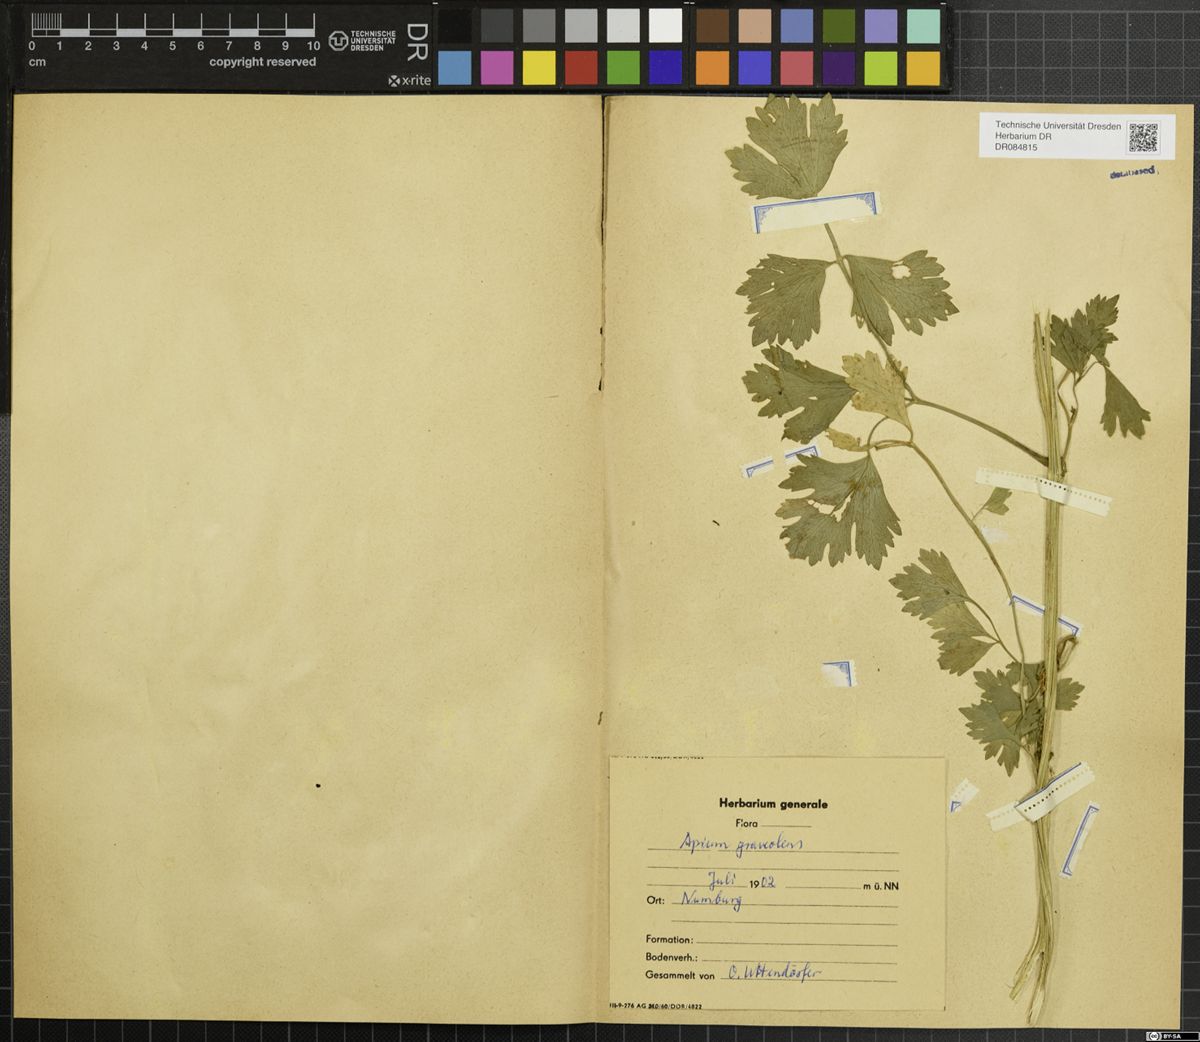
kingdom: Plantae
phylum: Tracheophyta
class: Magnoliopsida
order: Apiales
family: Apiaceae
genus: Apium
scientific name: Apium graveolens
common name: Wild celery
